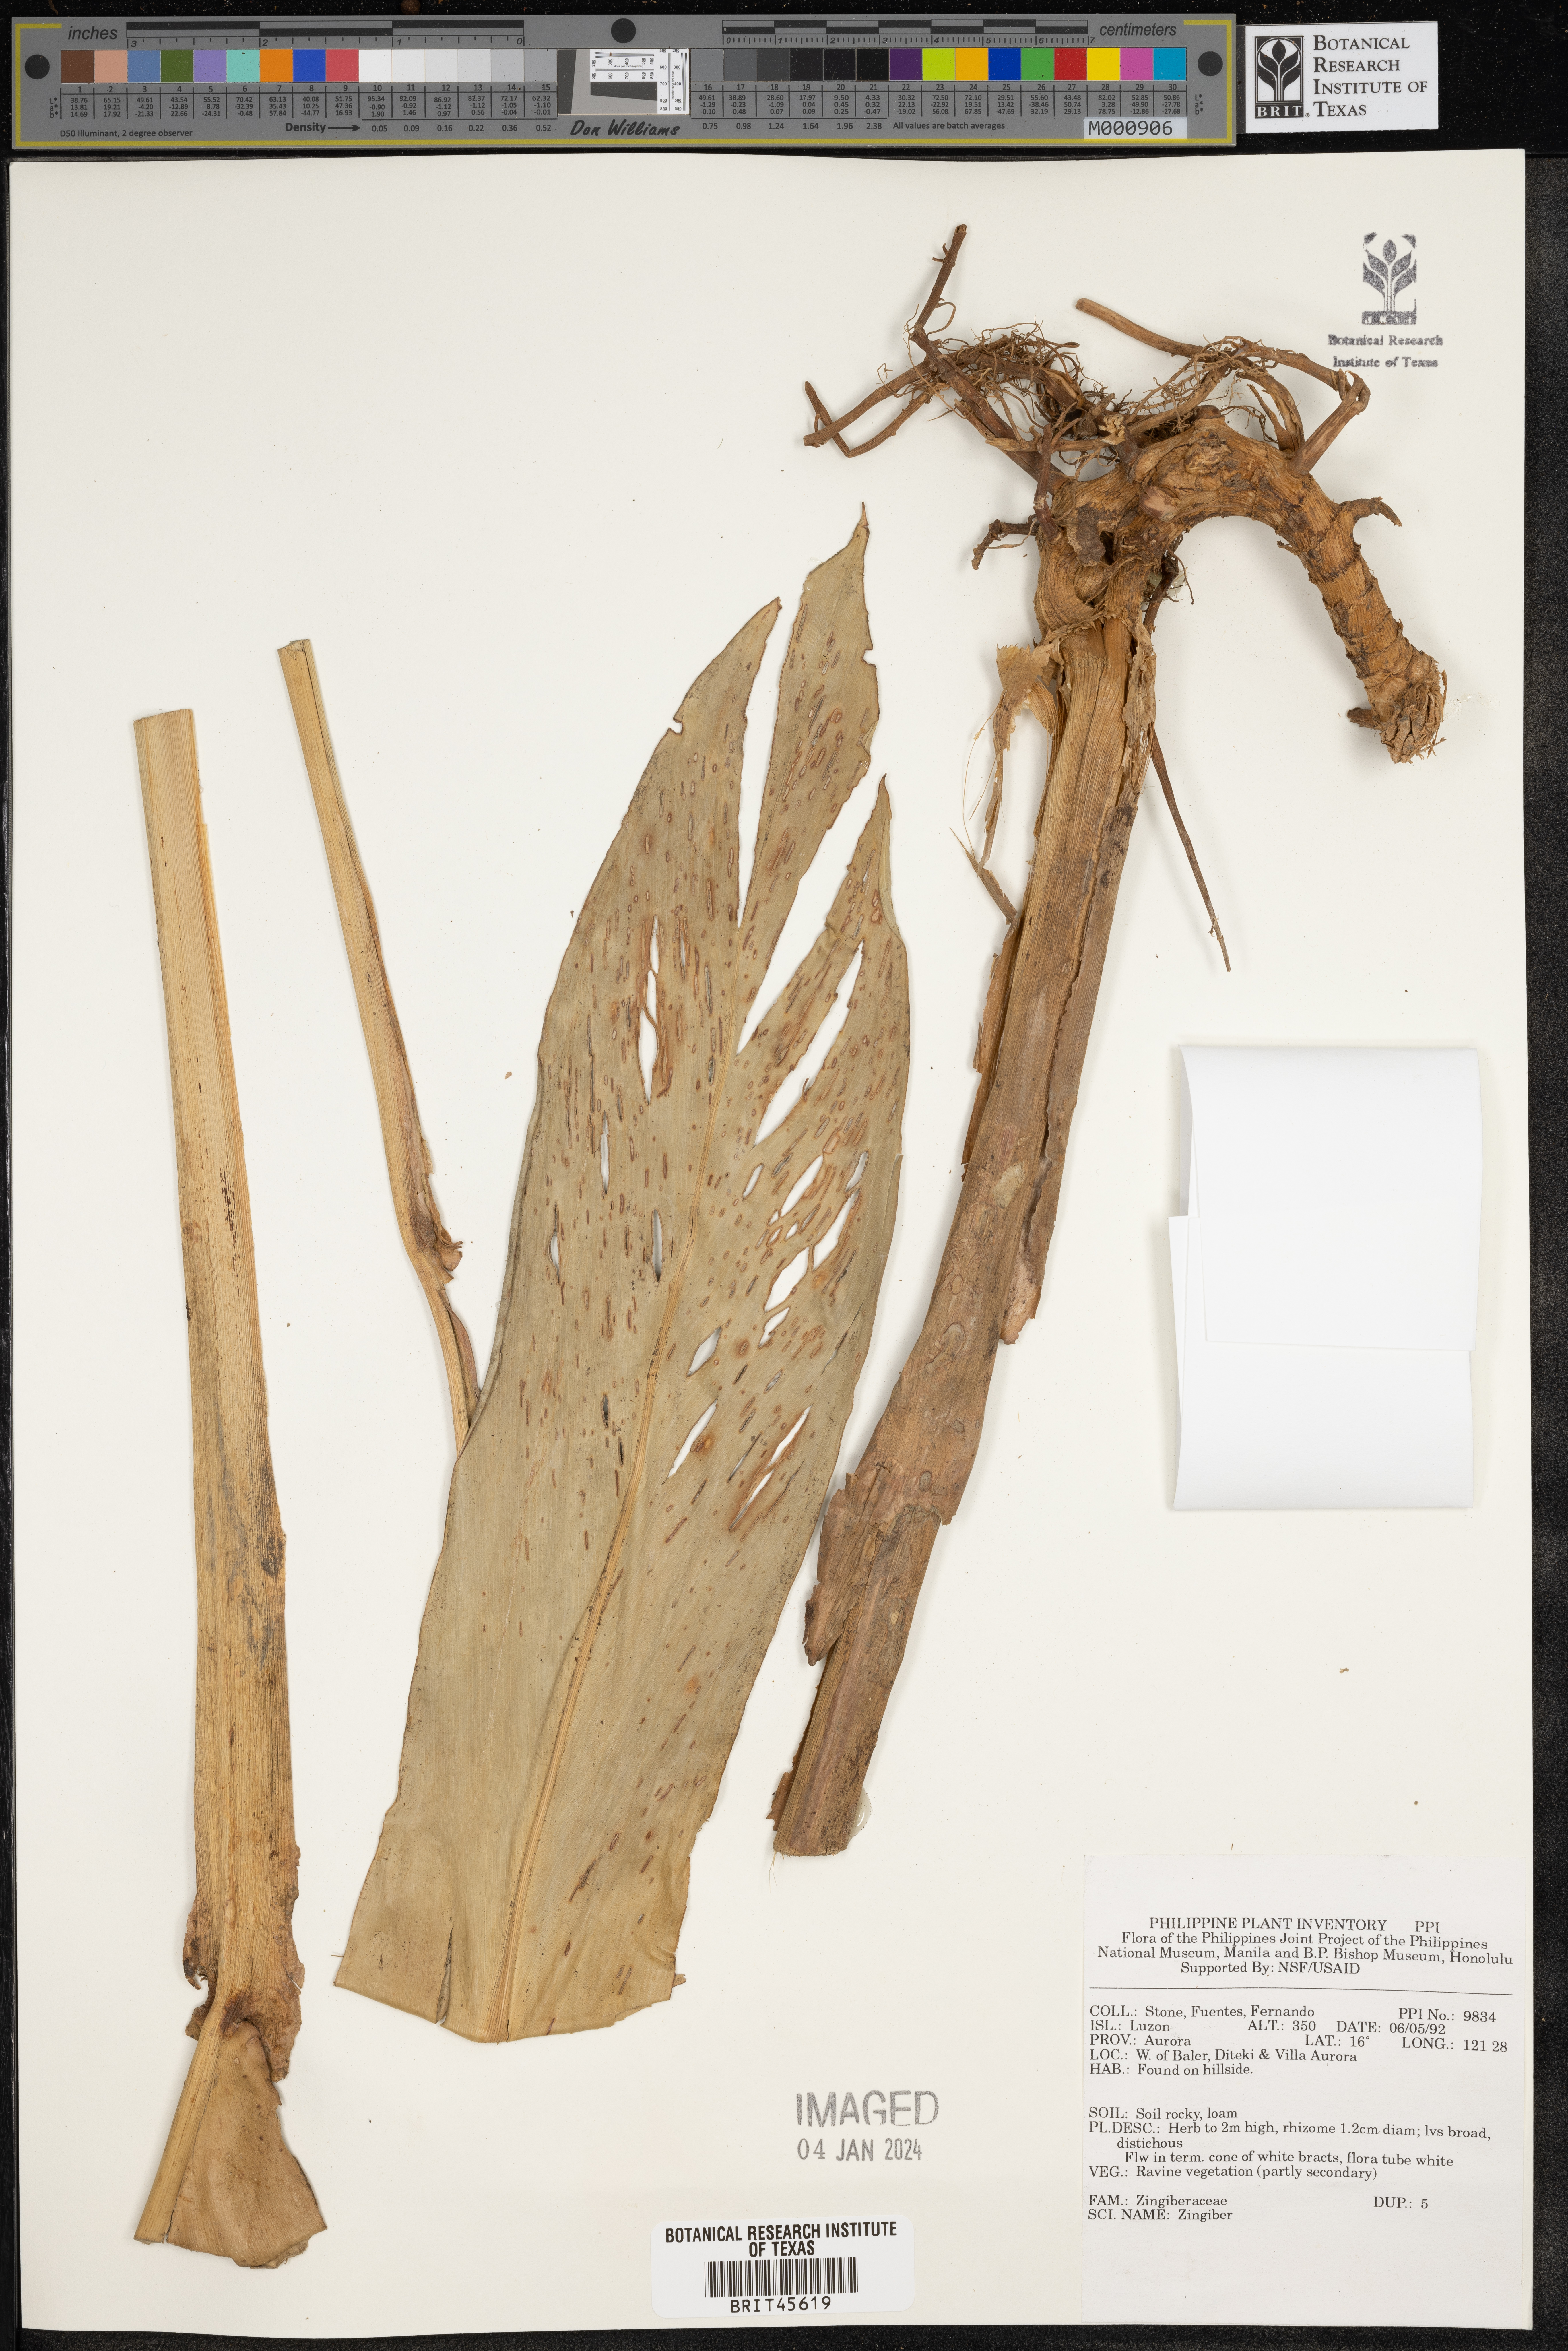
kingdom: Plantae
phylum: Tracheophyta
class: Liliopsida
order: Zingiberales
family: Zingiberaceae
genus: Zingiber
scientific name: Zingiber
